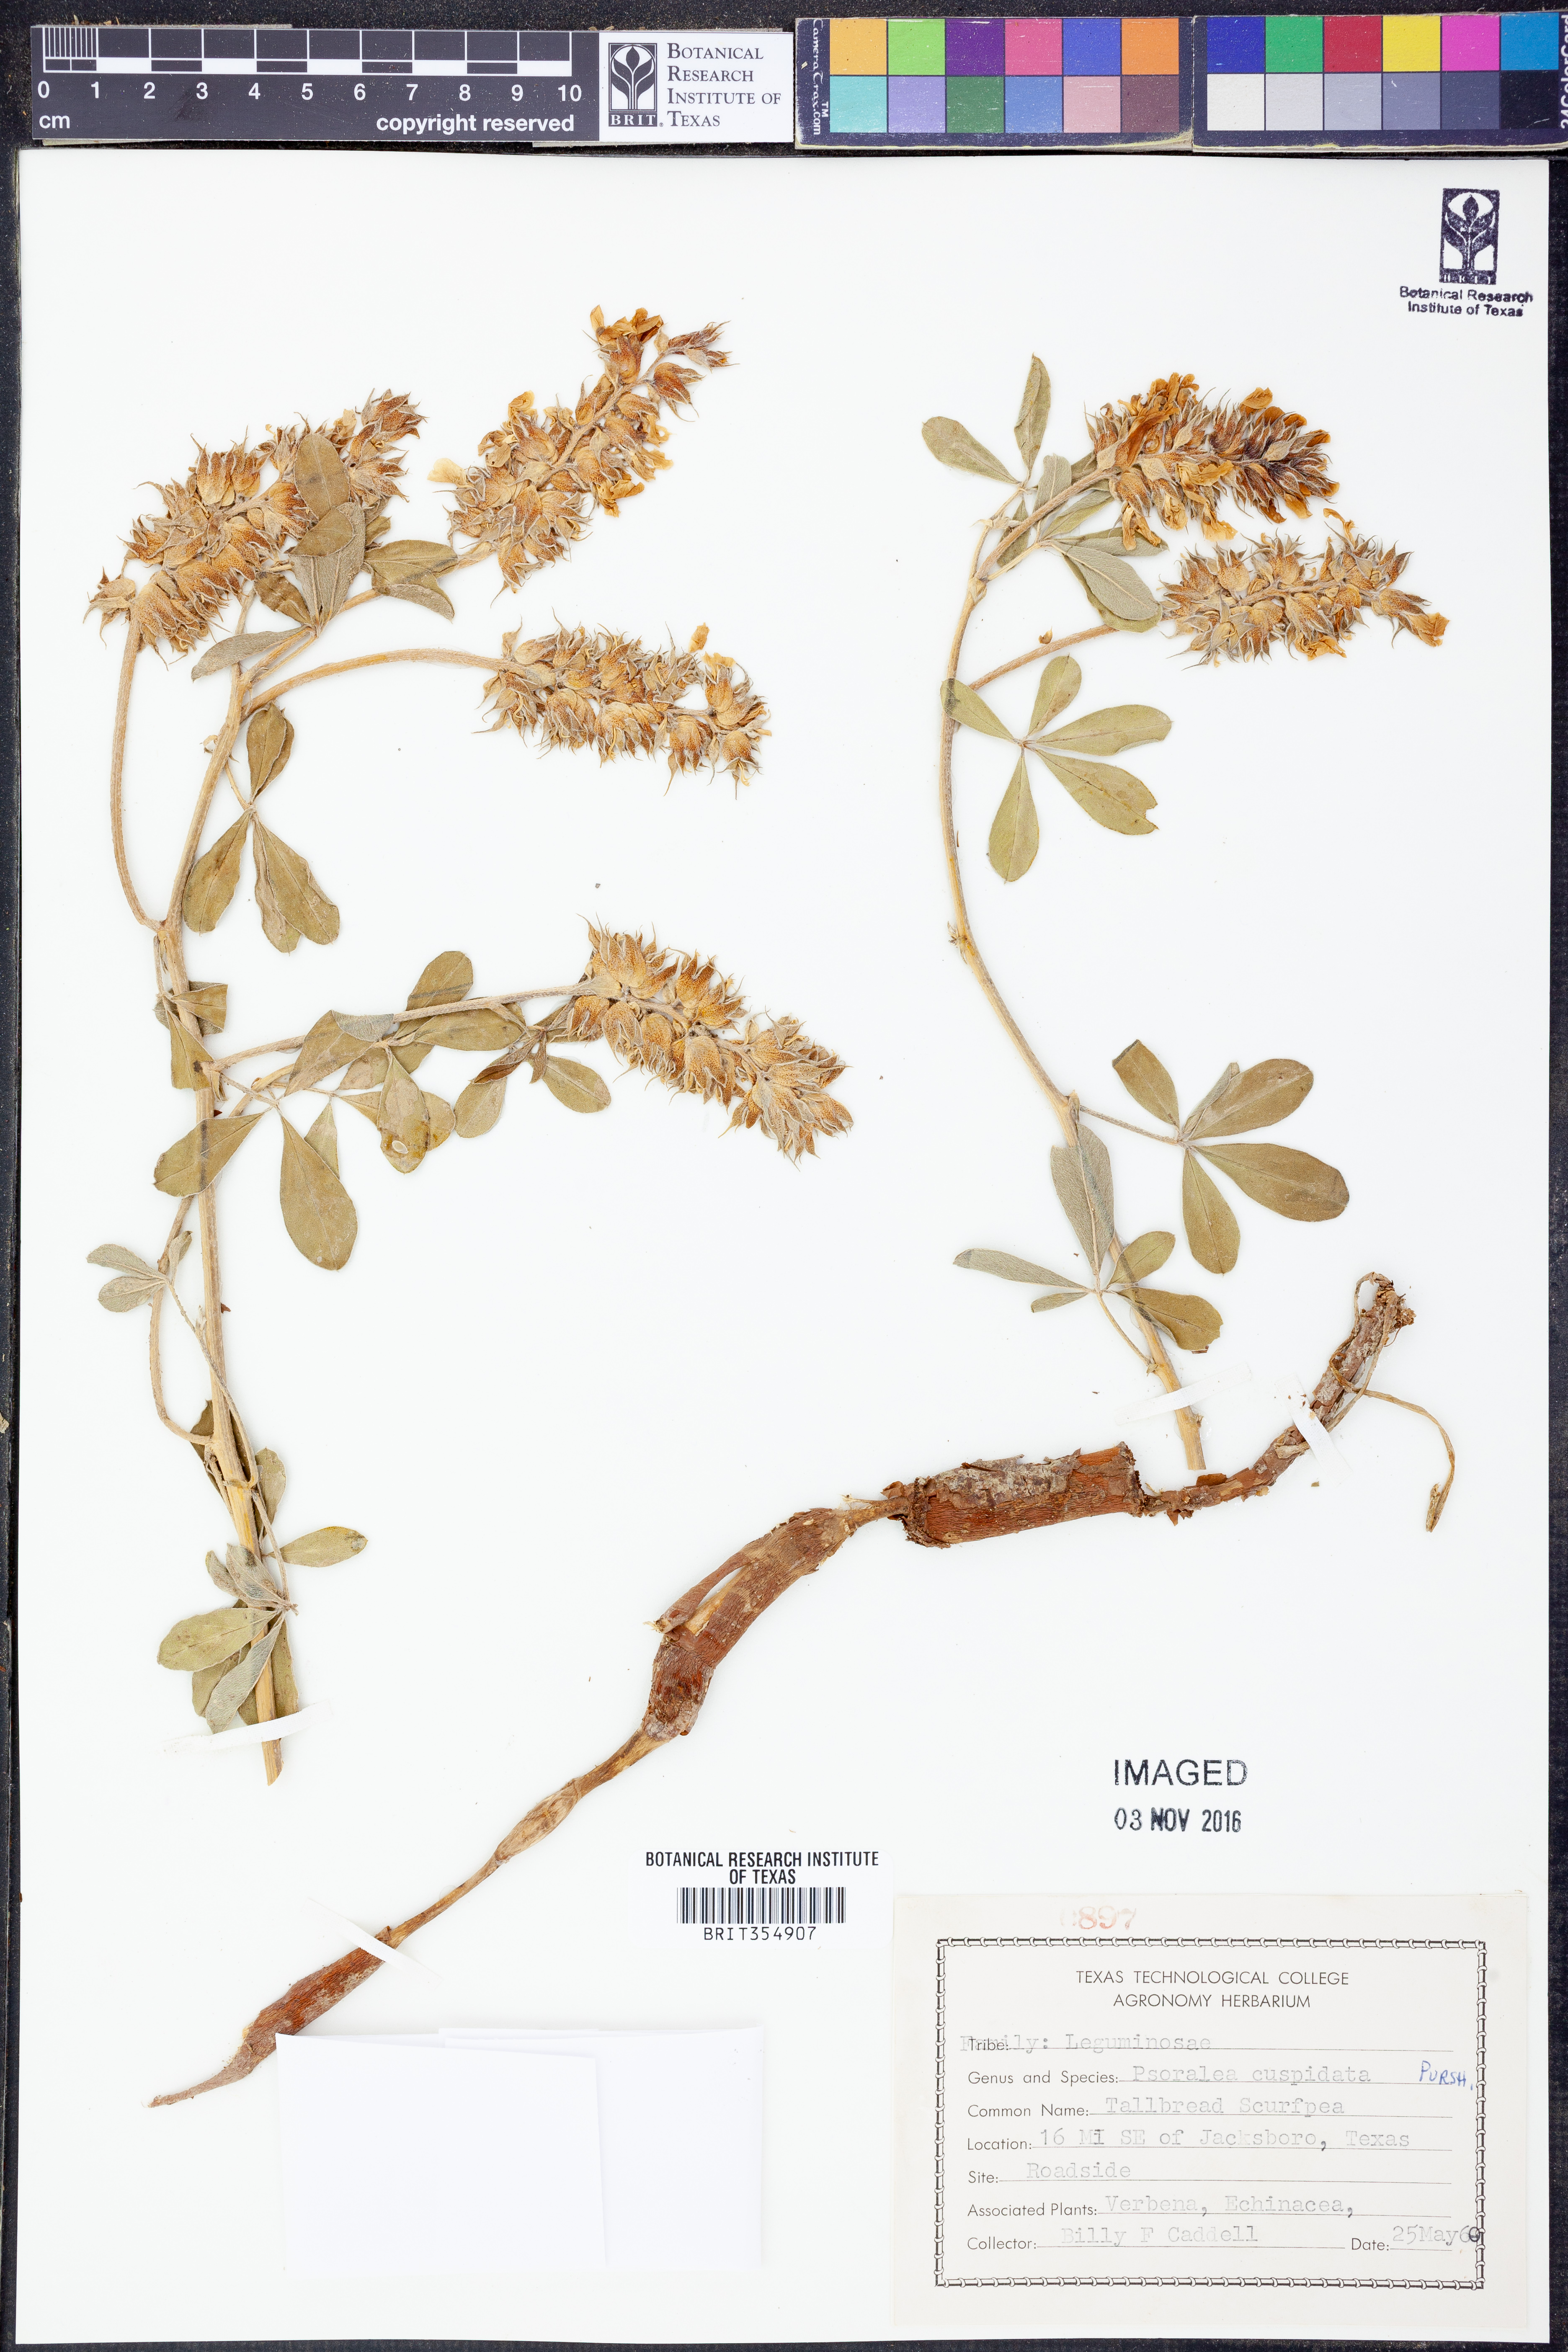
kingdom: Plantae
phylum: Tracheophyta
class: Magnoliopsida
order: Fabales
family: Fabaceae
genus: Pediomelum
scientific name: Pediomelum cuspidatum
